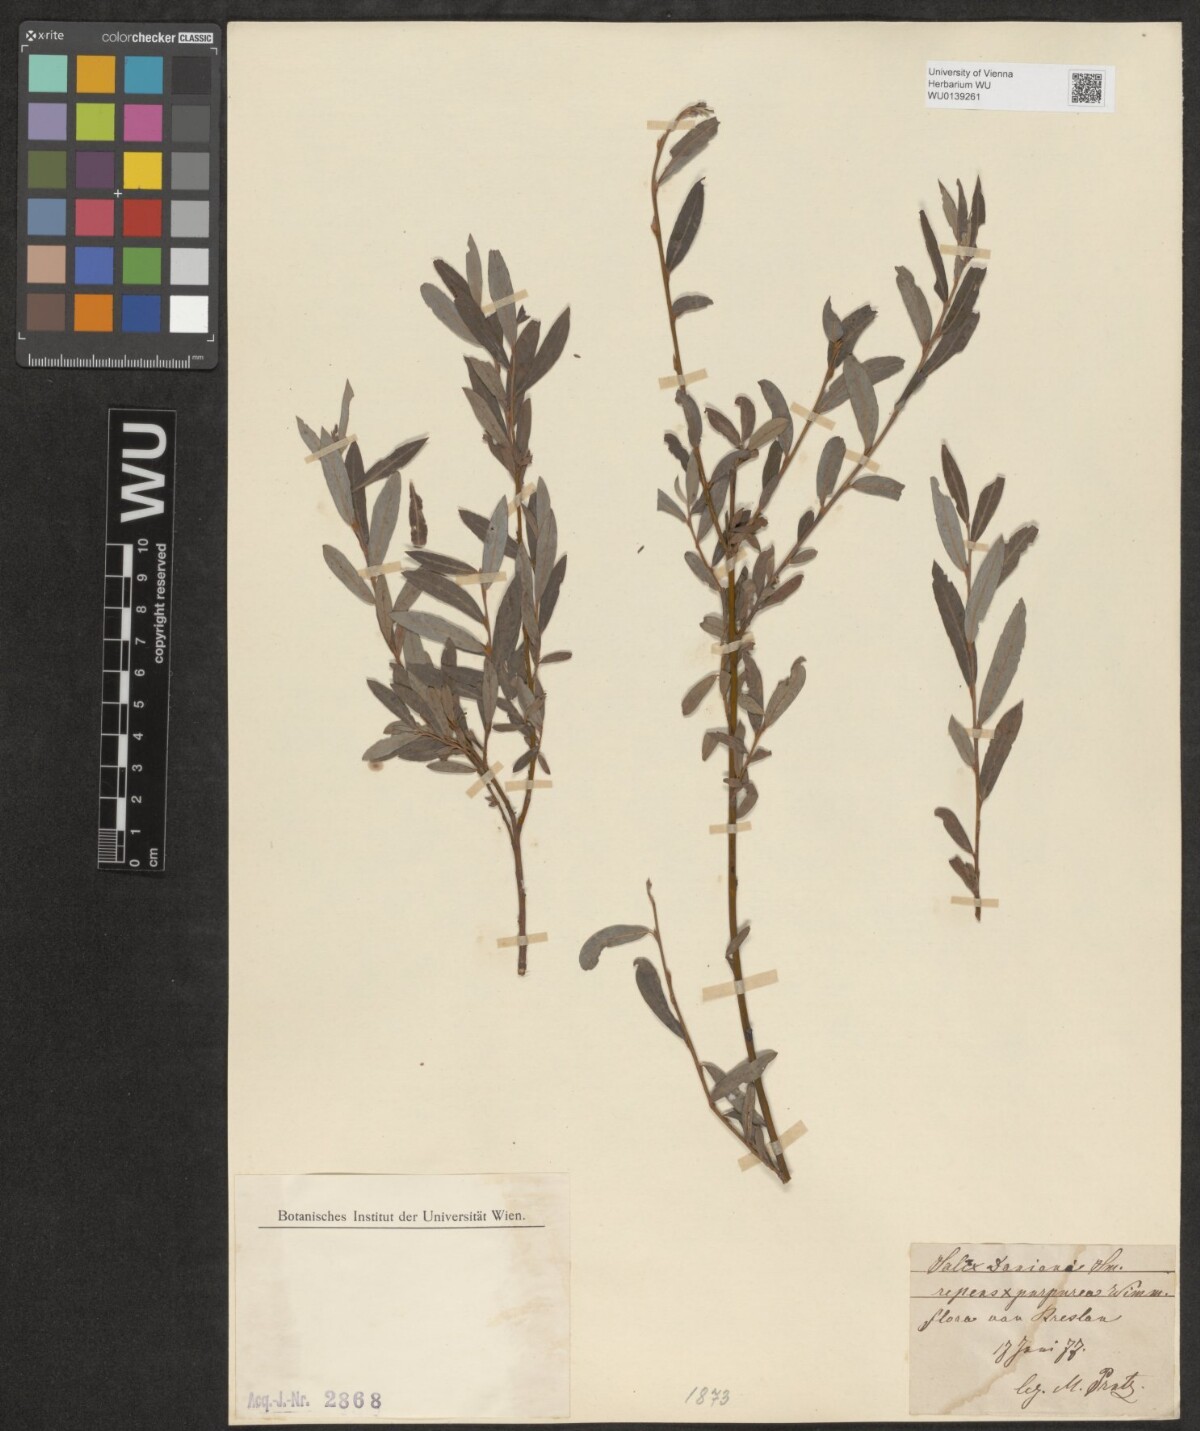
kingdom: Plantae
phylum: Tracheophyta
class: Magnoliopsida
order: Malpighiales
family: Salicaceae
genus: Salix
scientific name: Salix repens
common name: Creeping willow
